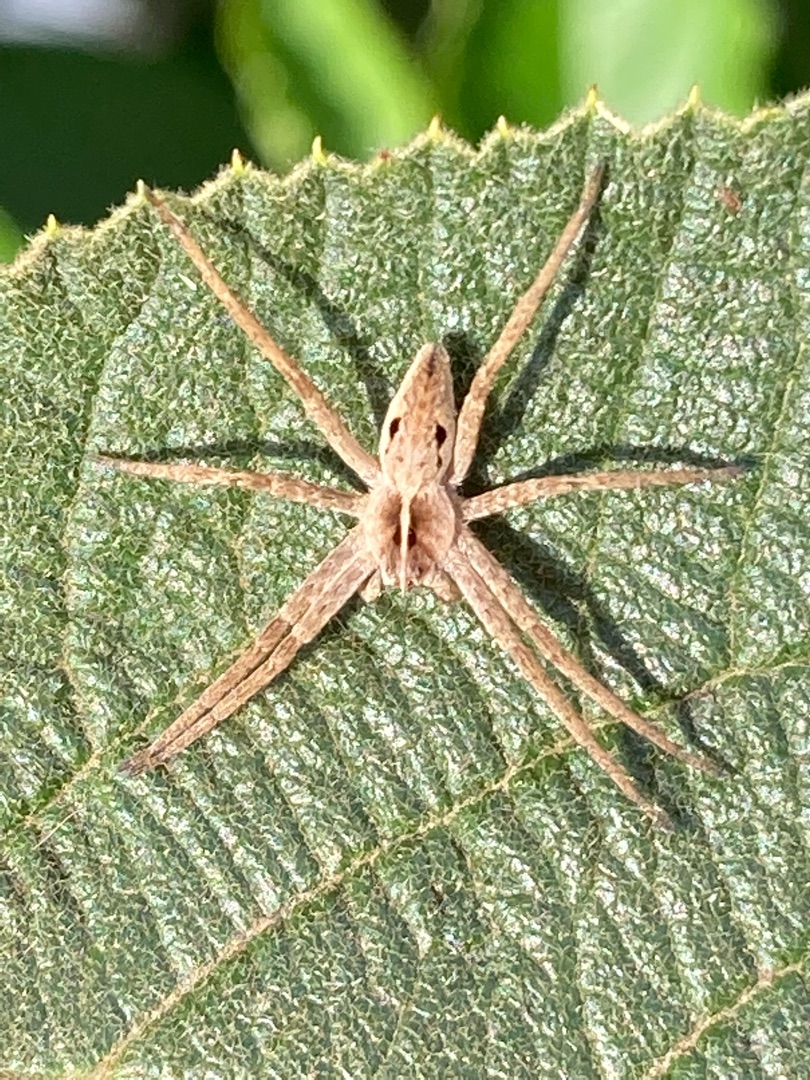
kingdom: Animalia
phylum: Arthropoda
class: Arachnida
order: Araneae
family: Pisauridae
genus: Pisaura
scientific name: Pisaura mirabilis
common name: Almindelig rovedderkop
